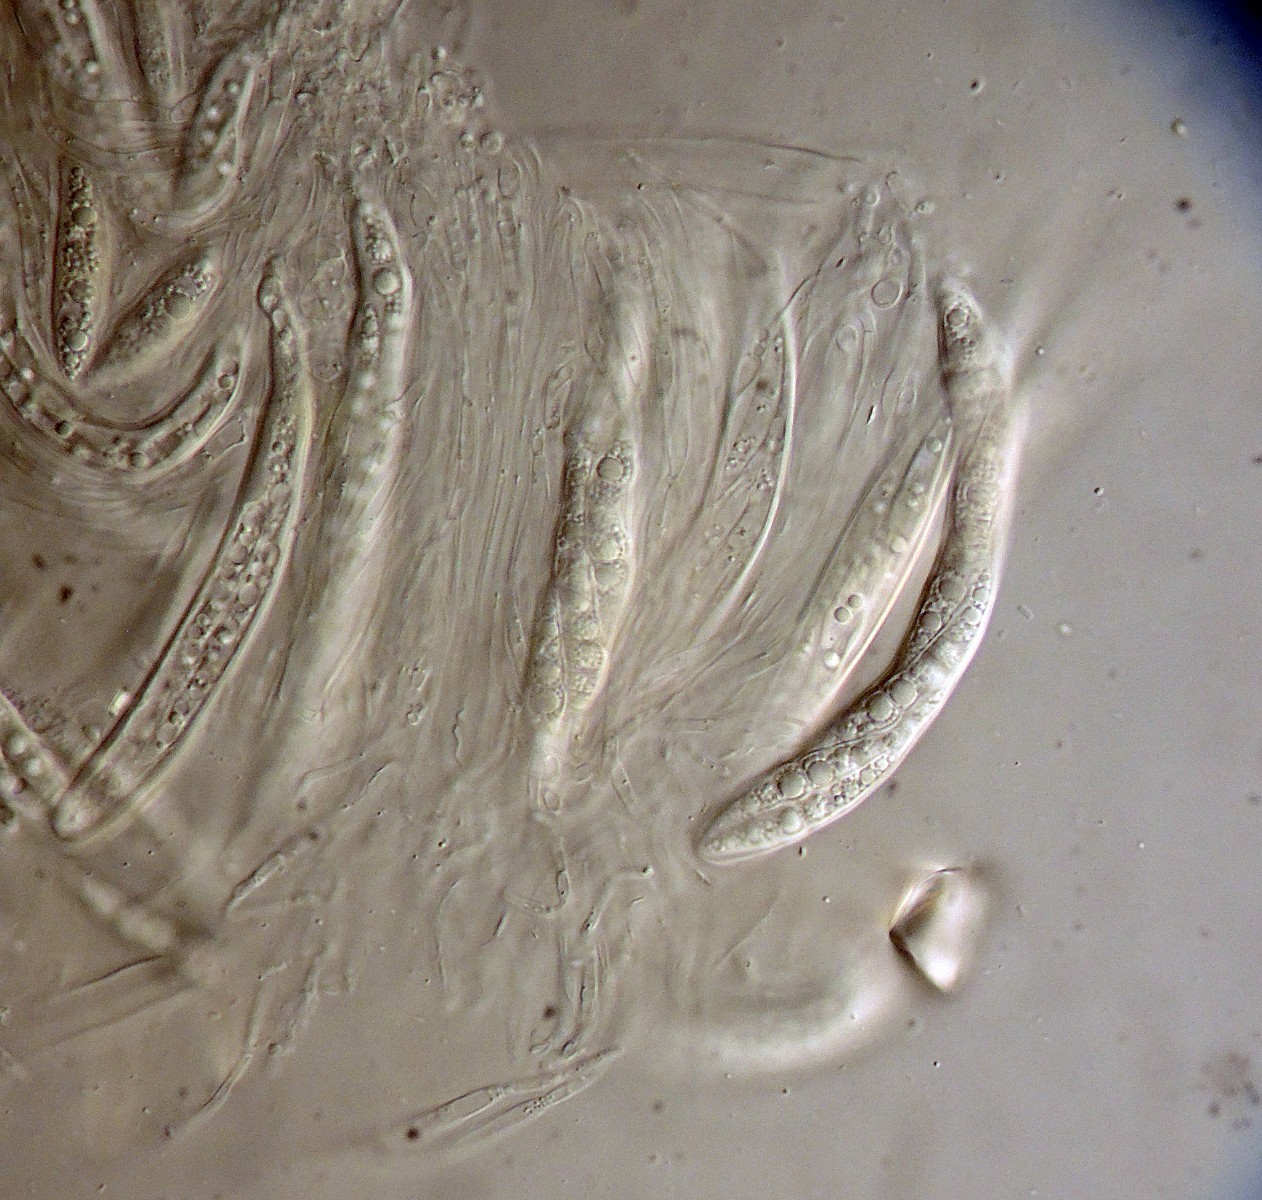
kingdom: Fungi
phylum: Ascomycota
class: Dothideomycetes
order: Pleosporales
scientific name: Pleosporales
